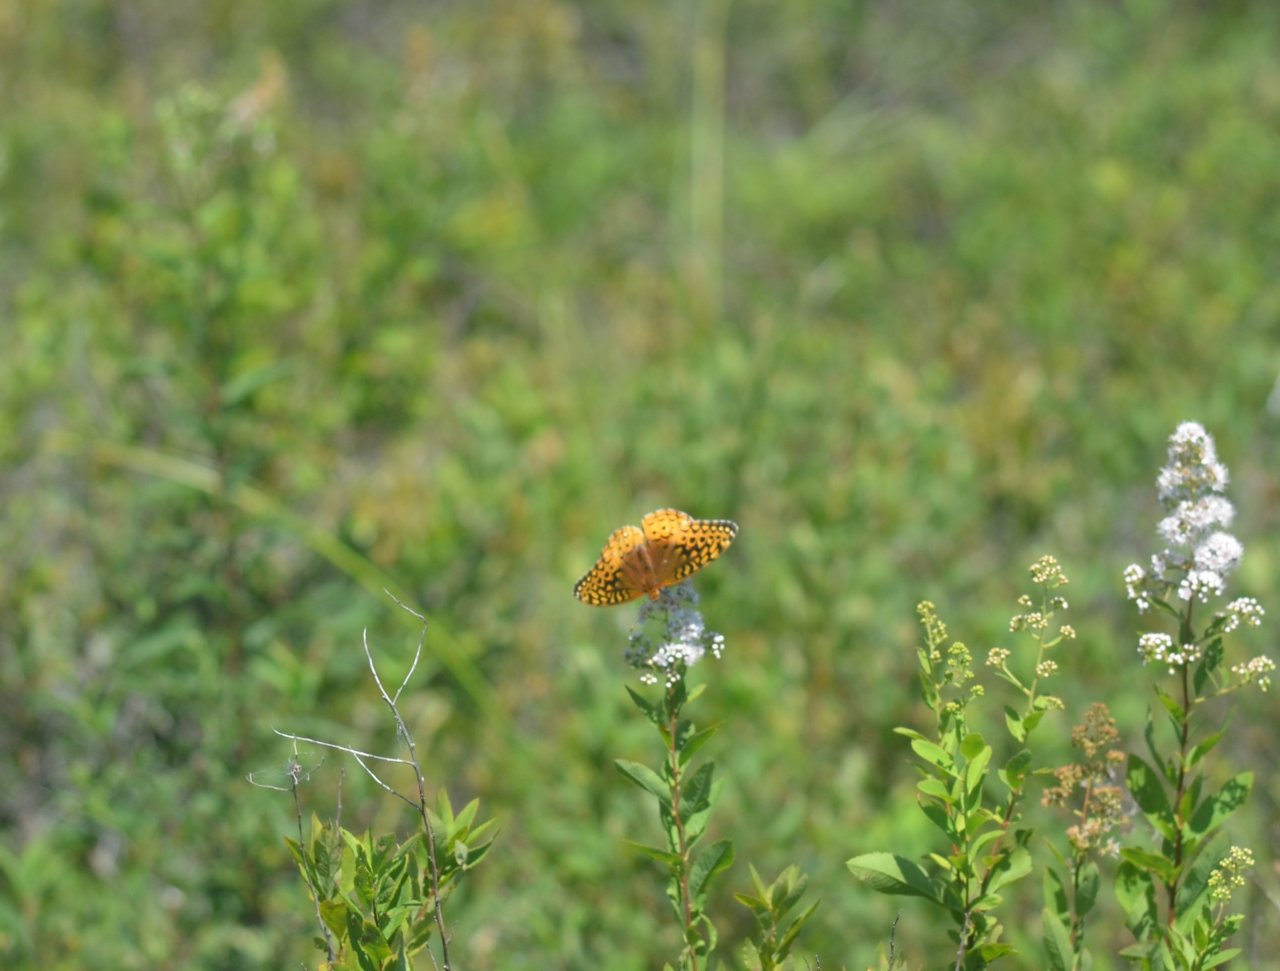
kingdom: Animalia
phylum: Arthropoda
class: Insecta
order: Lepidoptera
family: Nymphalidae
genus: Speyeria
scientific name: Speyeria cybele
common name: Great Spangled Fritillary
